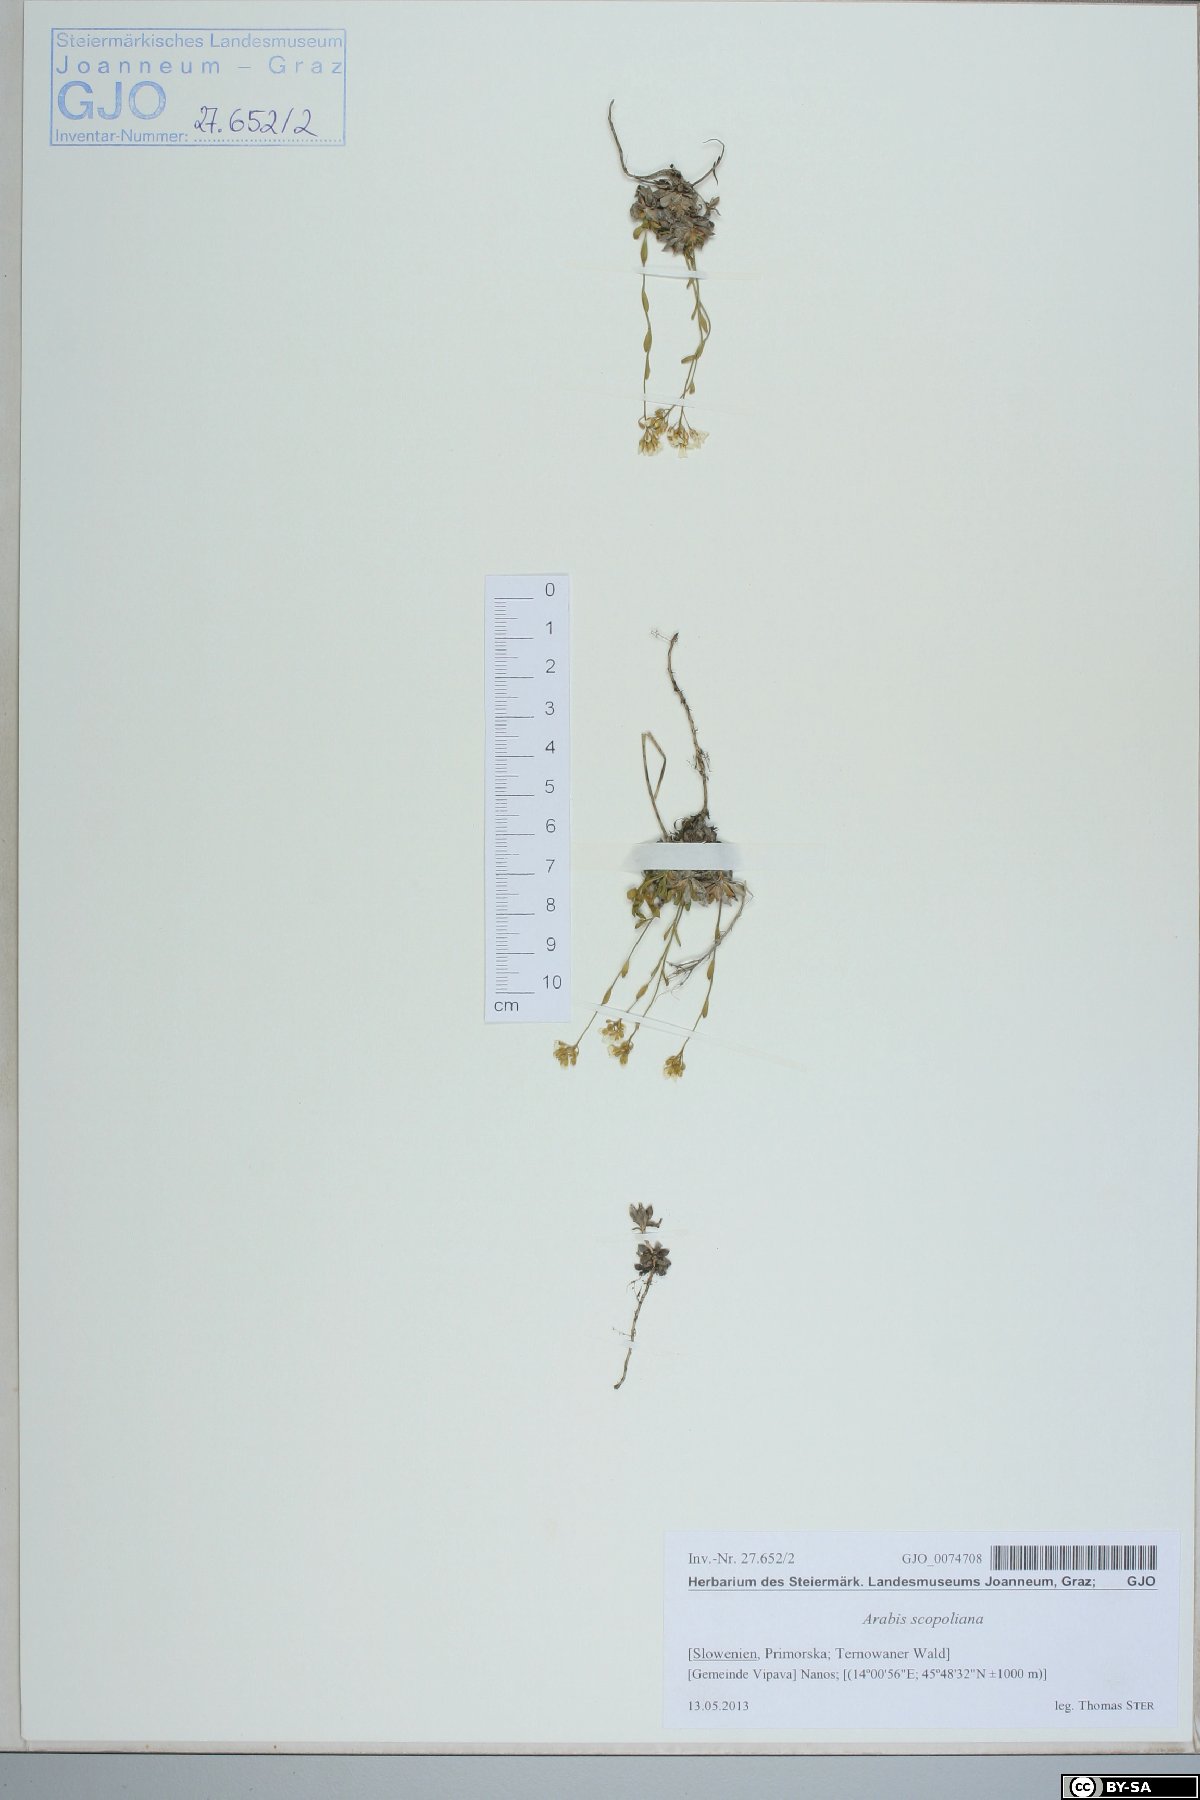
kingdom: Plantae
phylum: Tracheophyta
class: Magnoliopsida
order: Brassicales
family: Brassicaceae
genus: Arabis
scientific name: Arabis scopoliana
